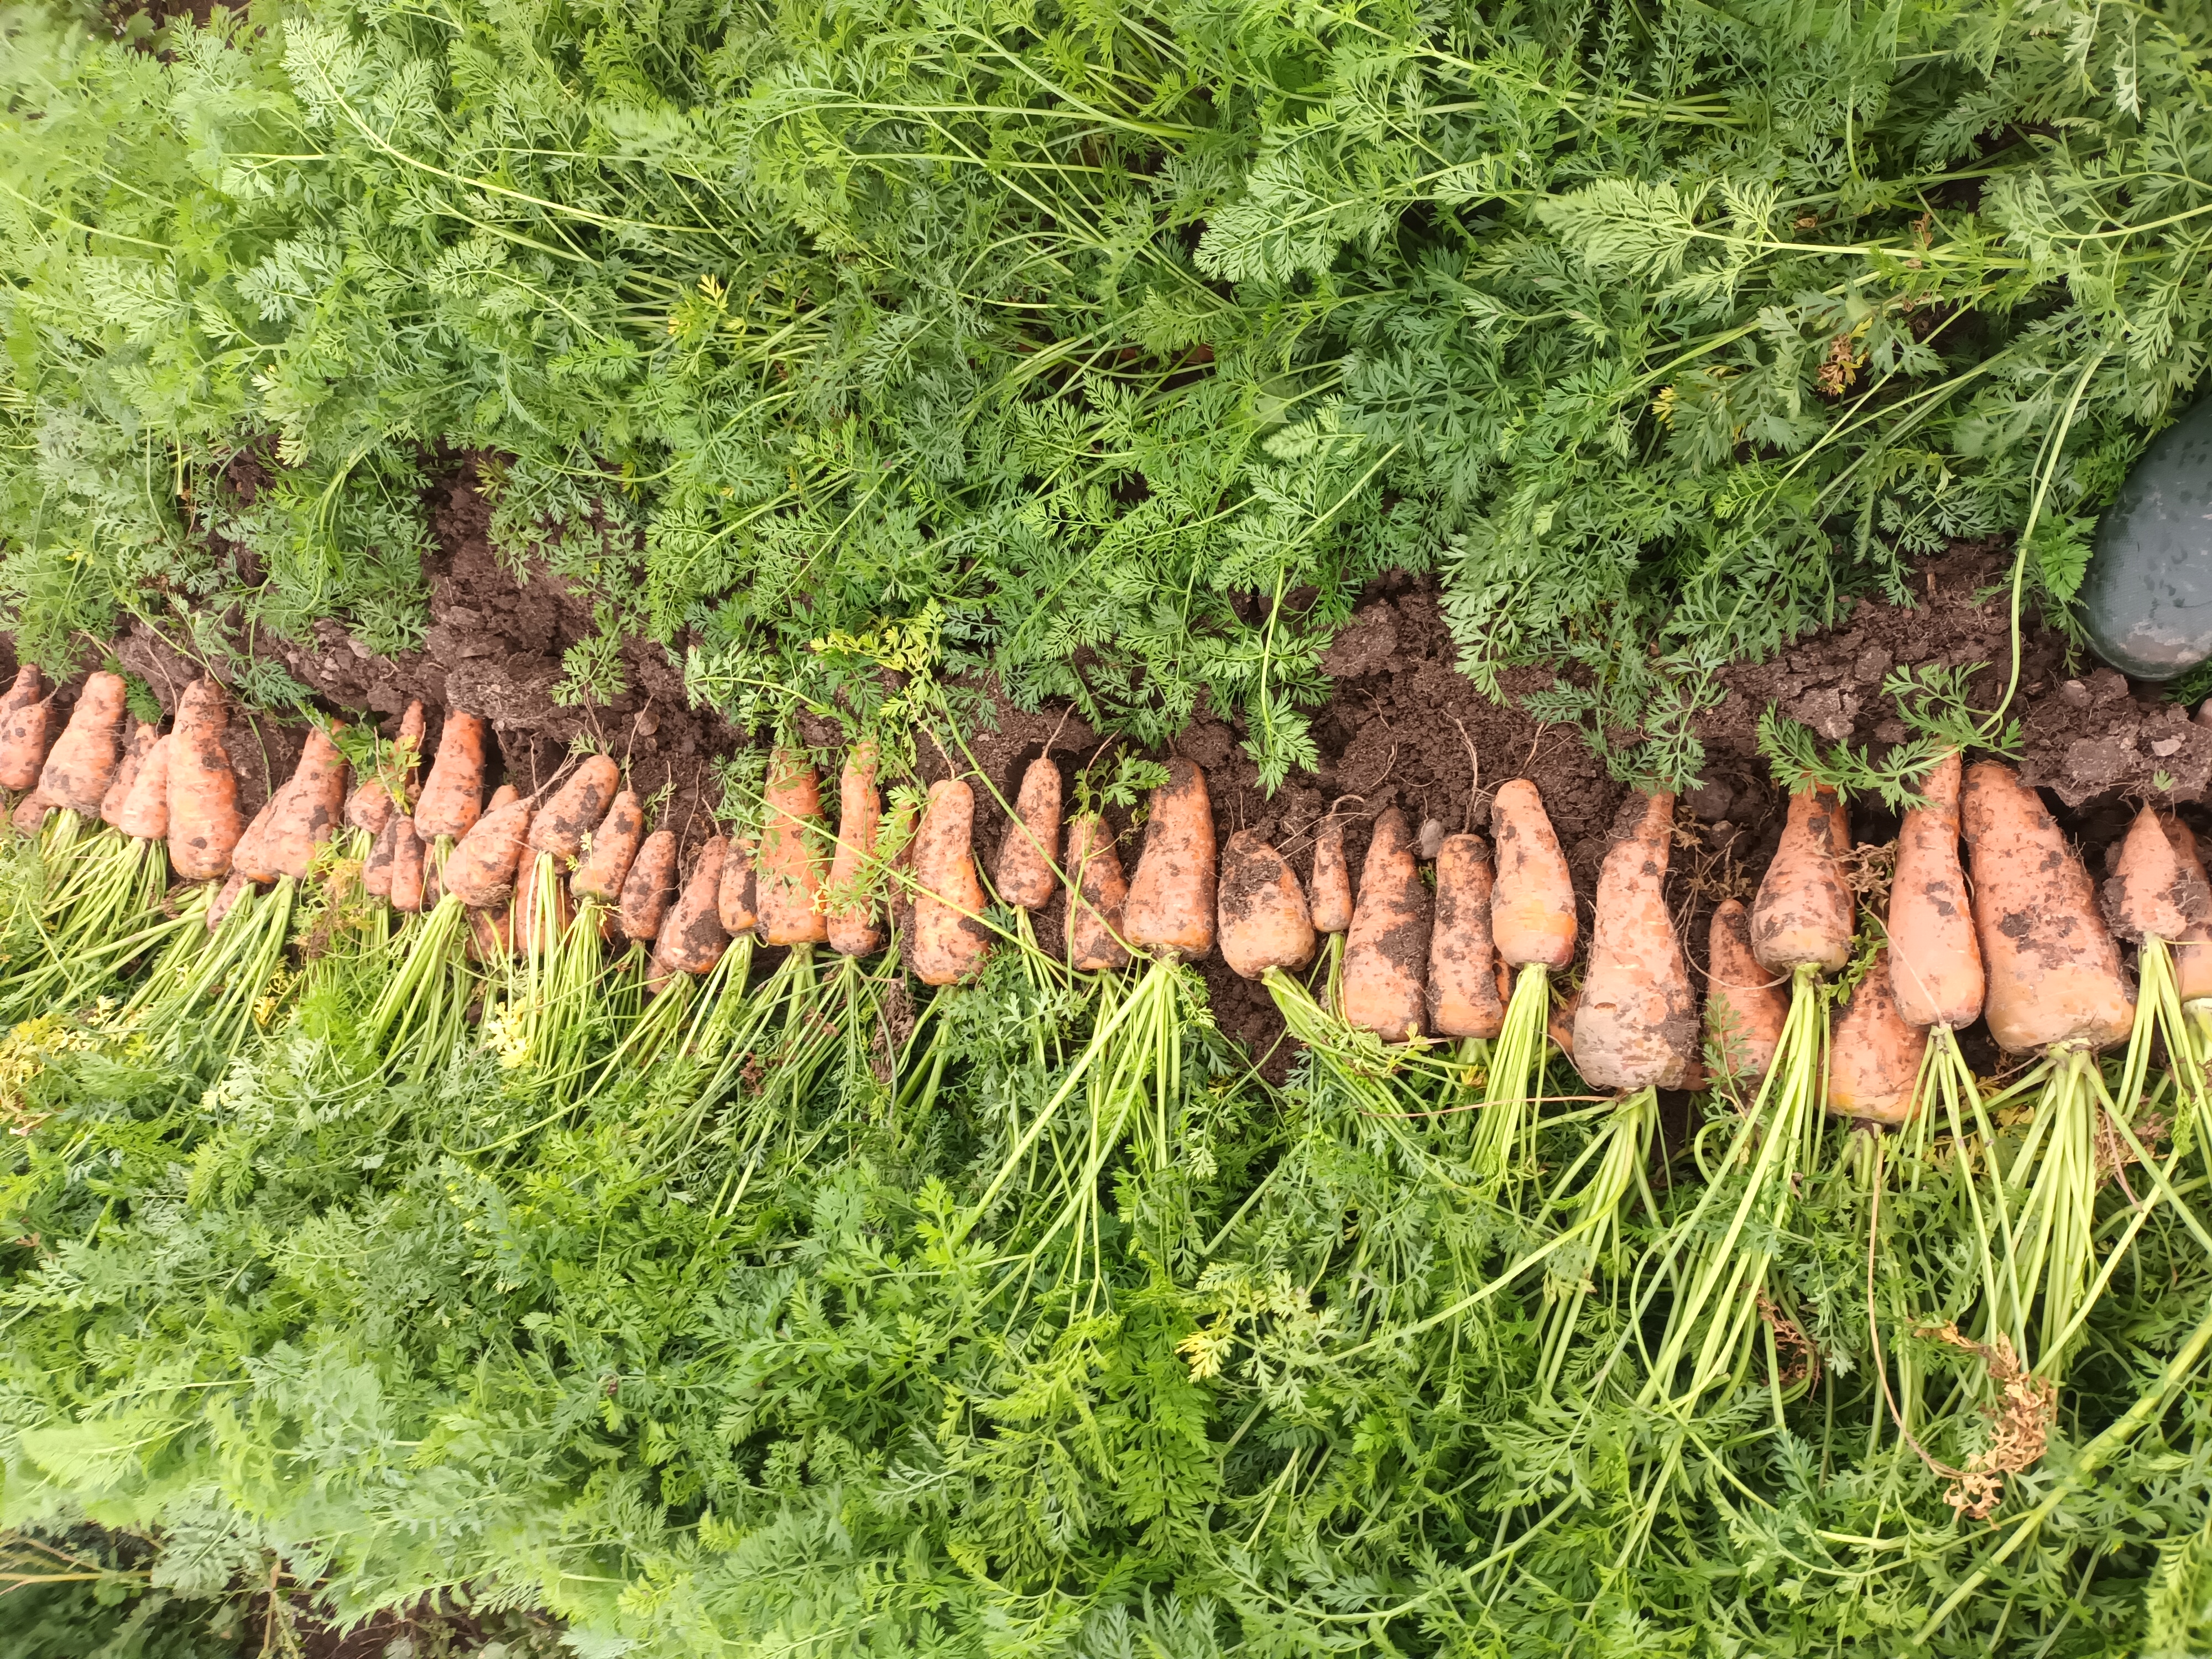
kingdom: Plantae
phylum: Tracheophyta
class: Magnoliopsida
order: Apiales
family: Apiaceae
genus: Daucus
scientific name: Daucus carota
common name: Wild carrot
